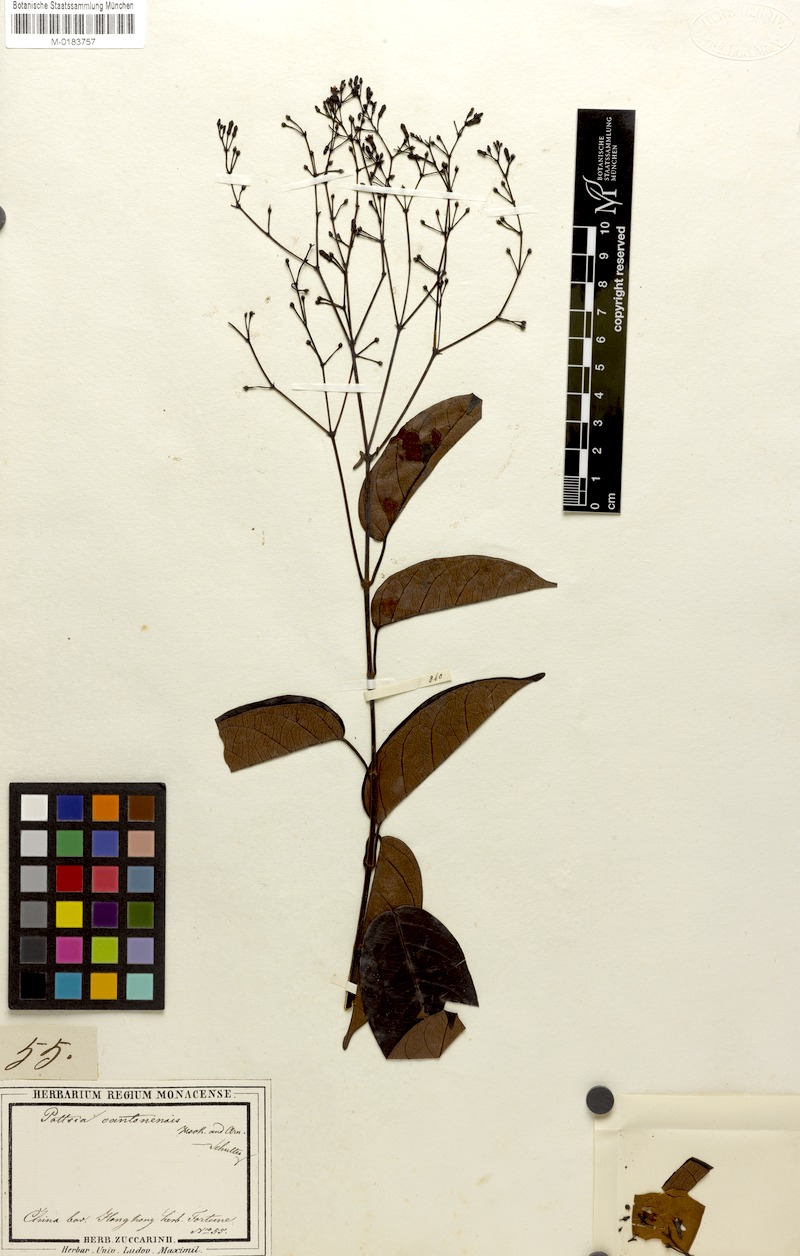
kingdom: Plantae
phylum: Tracheophyta
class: Magnoliopsida
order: Gentianales
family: Apocynaceae
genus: Pottsia
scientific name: Pottsia laxiflora
